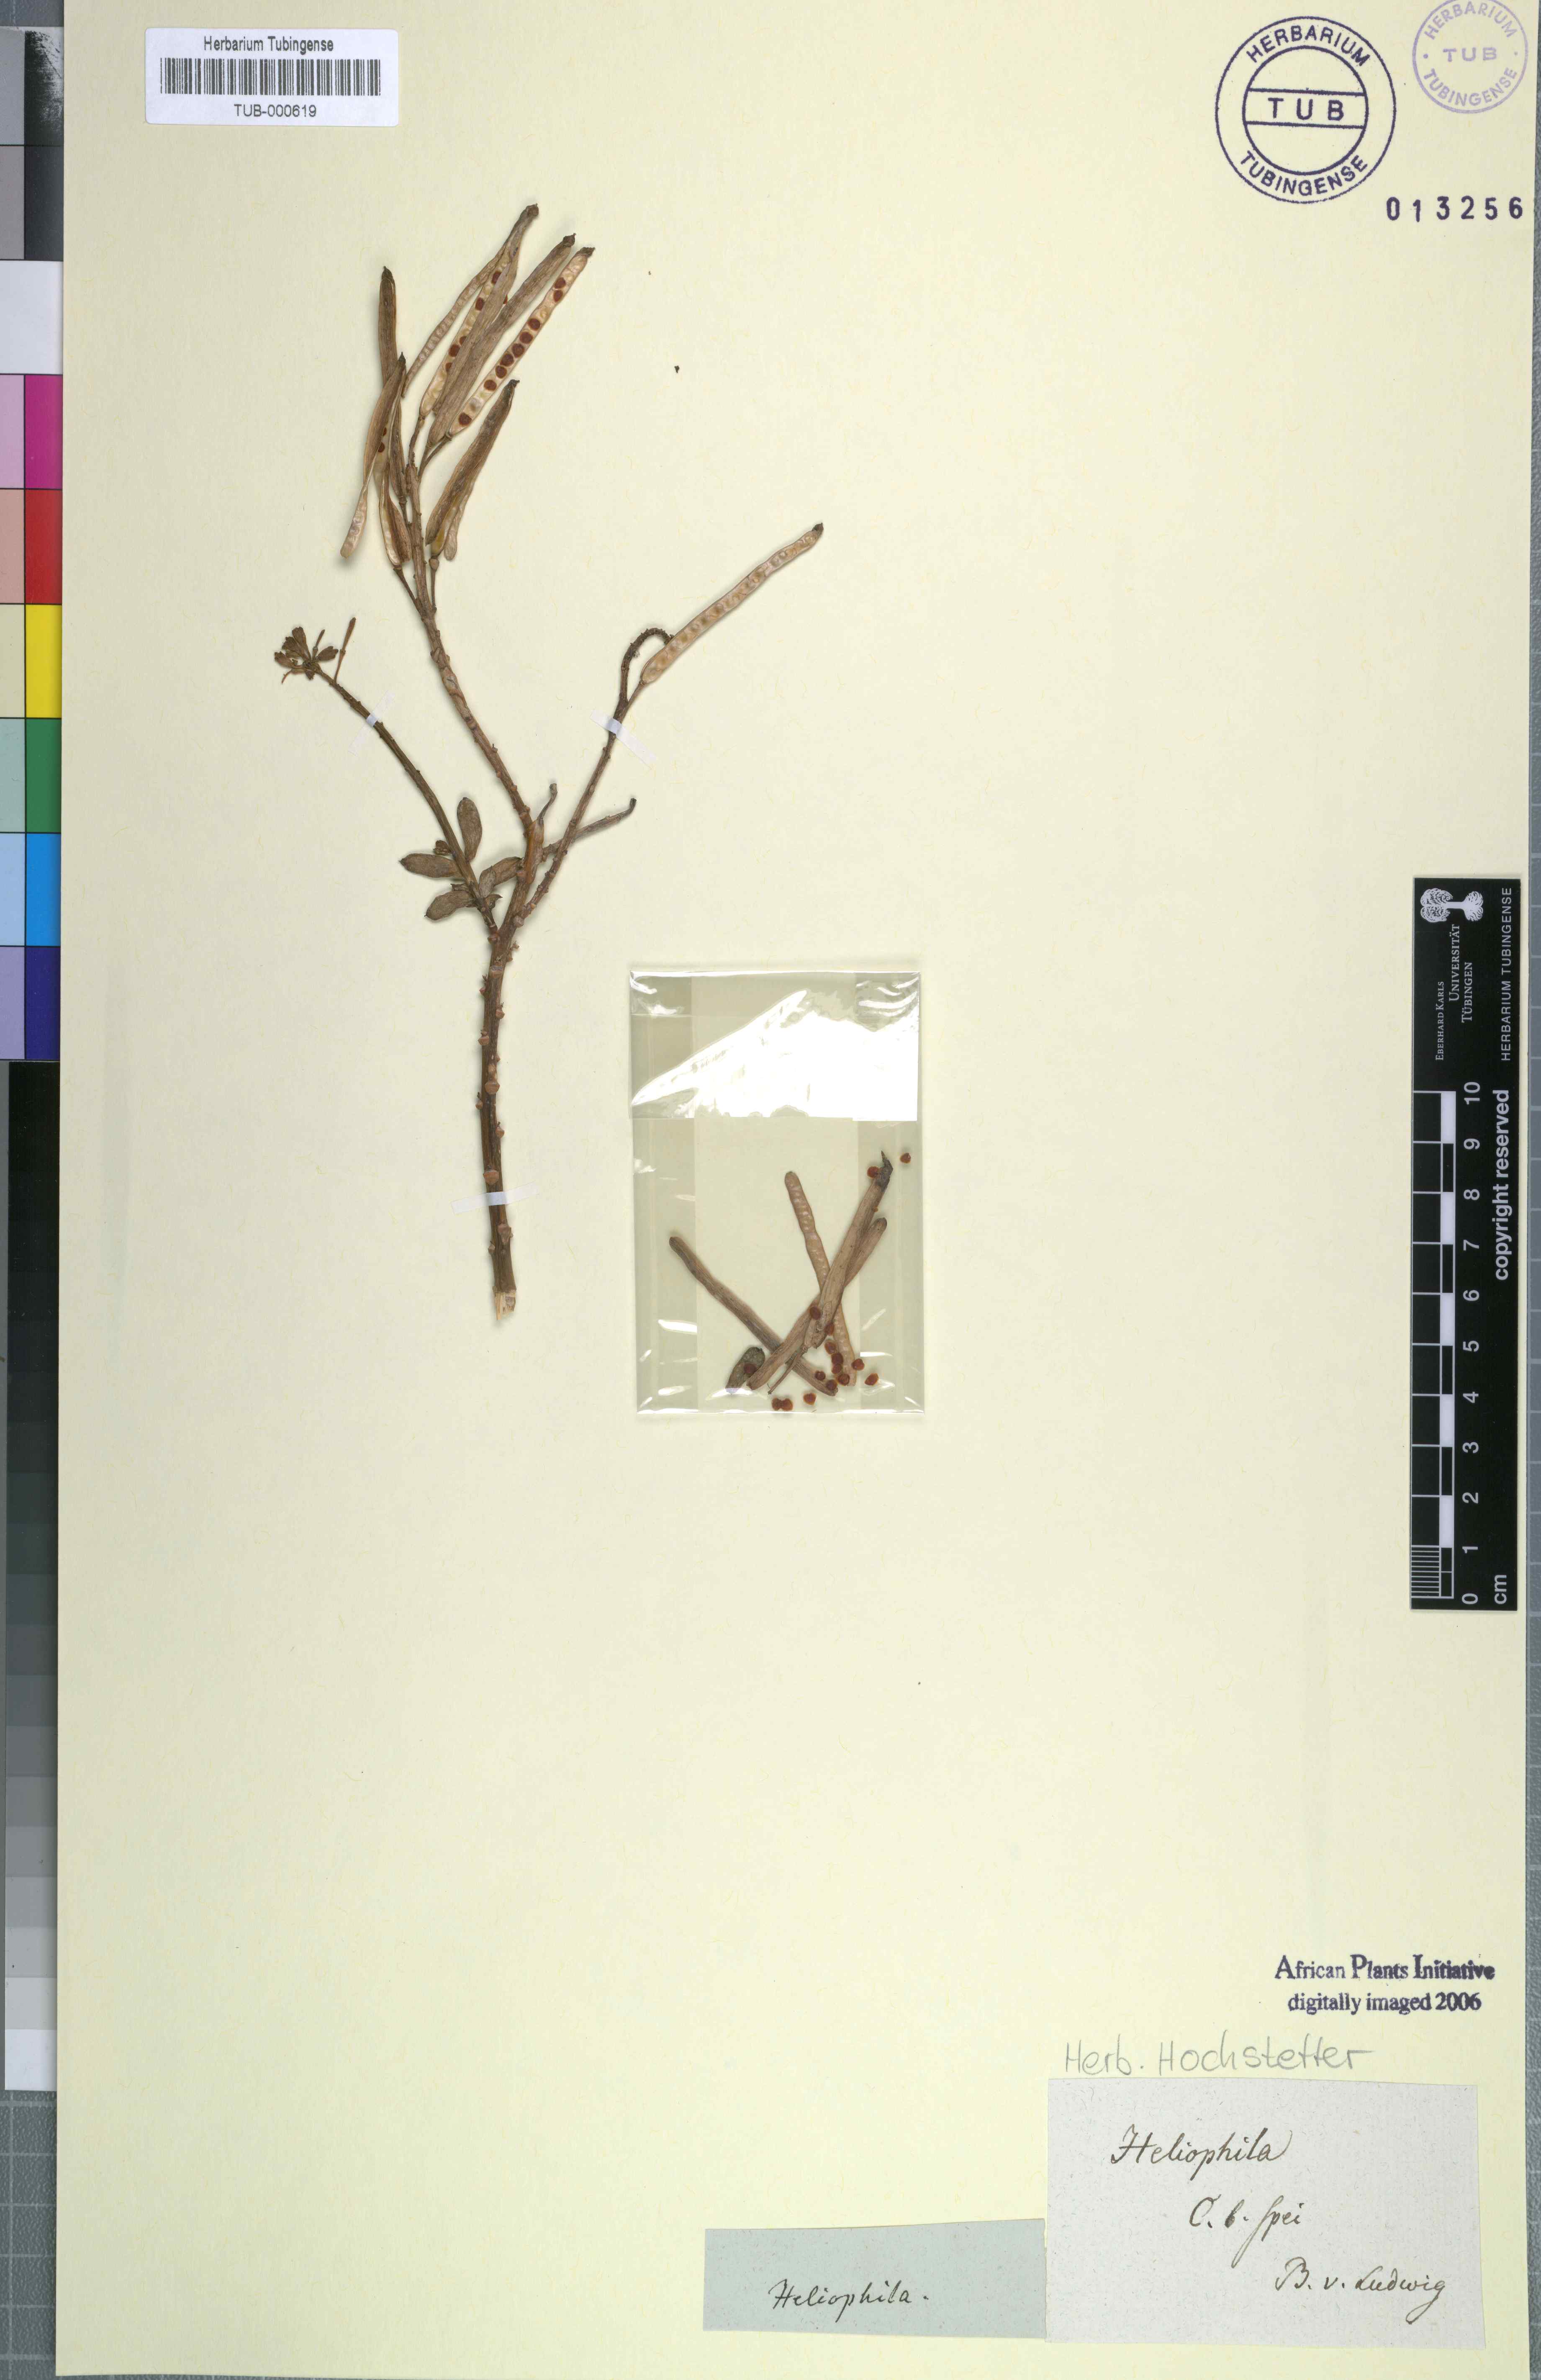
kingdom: Plantae
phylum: Tracheophyta
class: Magnoliopsida
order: Brassicales
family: Brassicaceae
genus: Heliophila
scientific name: Heliophila
